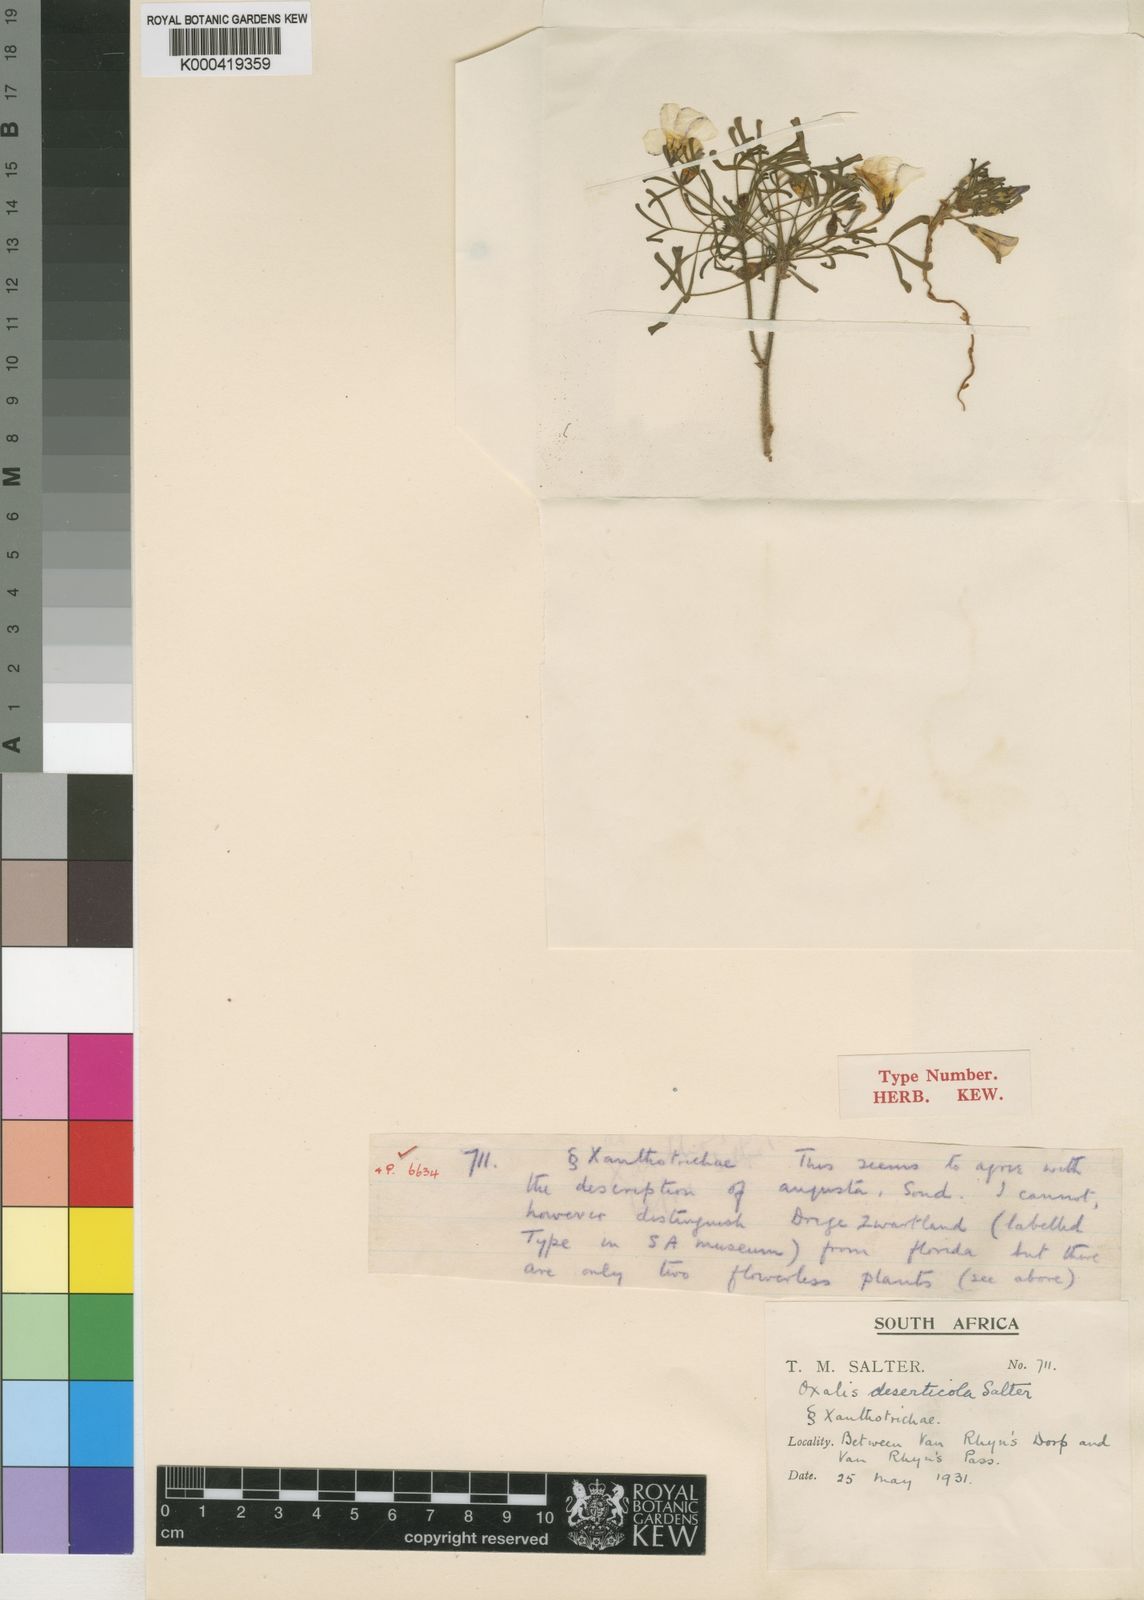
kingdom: Plantae
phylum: Tracheophyta
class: Magnoliopsida
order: Oxalidales
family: Oxalidaceae
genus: Oxalis
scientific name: Oxalis
